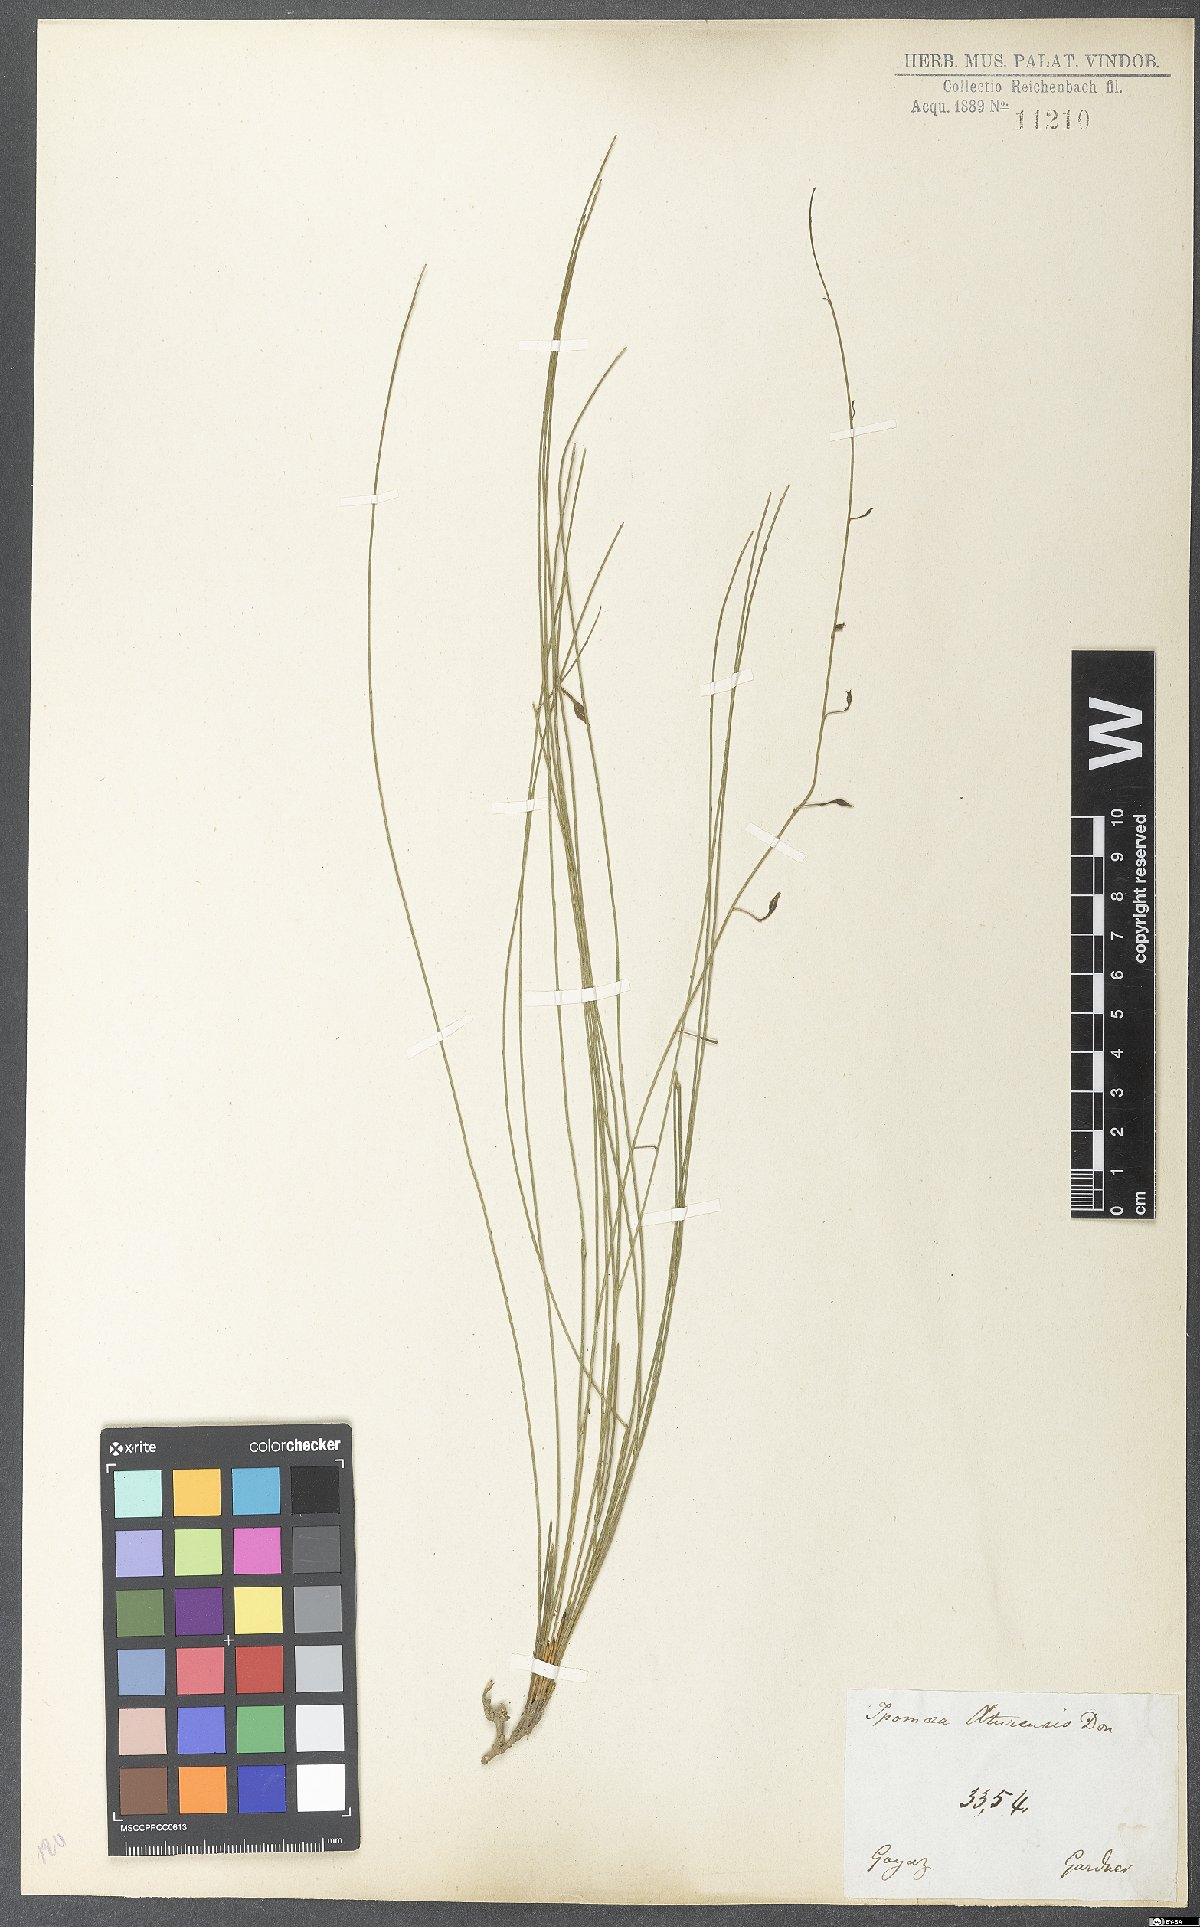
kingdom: Plantae
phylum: Tracheophyta
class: Magnoliopsida
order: Solanales
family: Convolvulaceae
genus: Distimake
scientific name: Distimake aturensis
